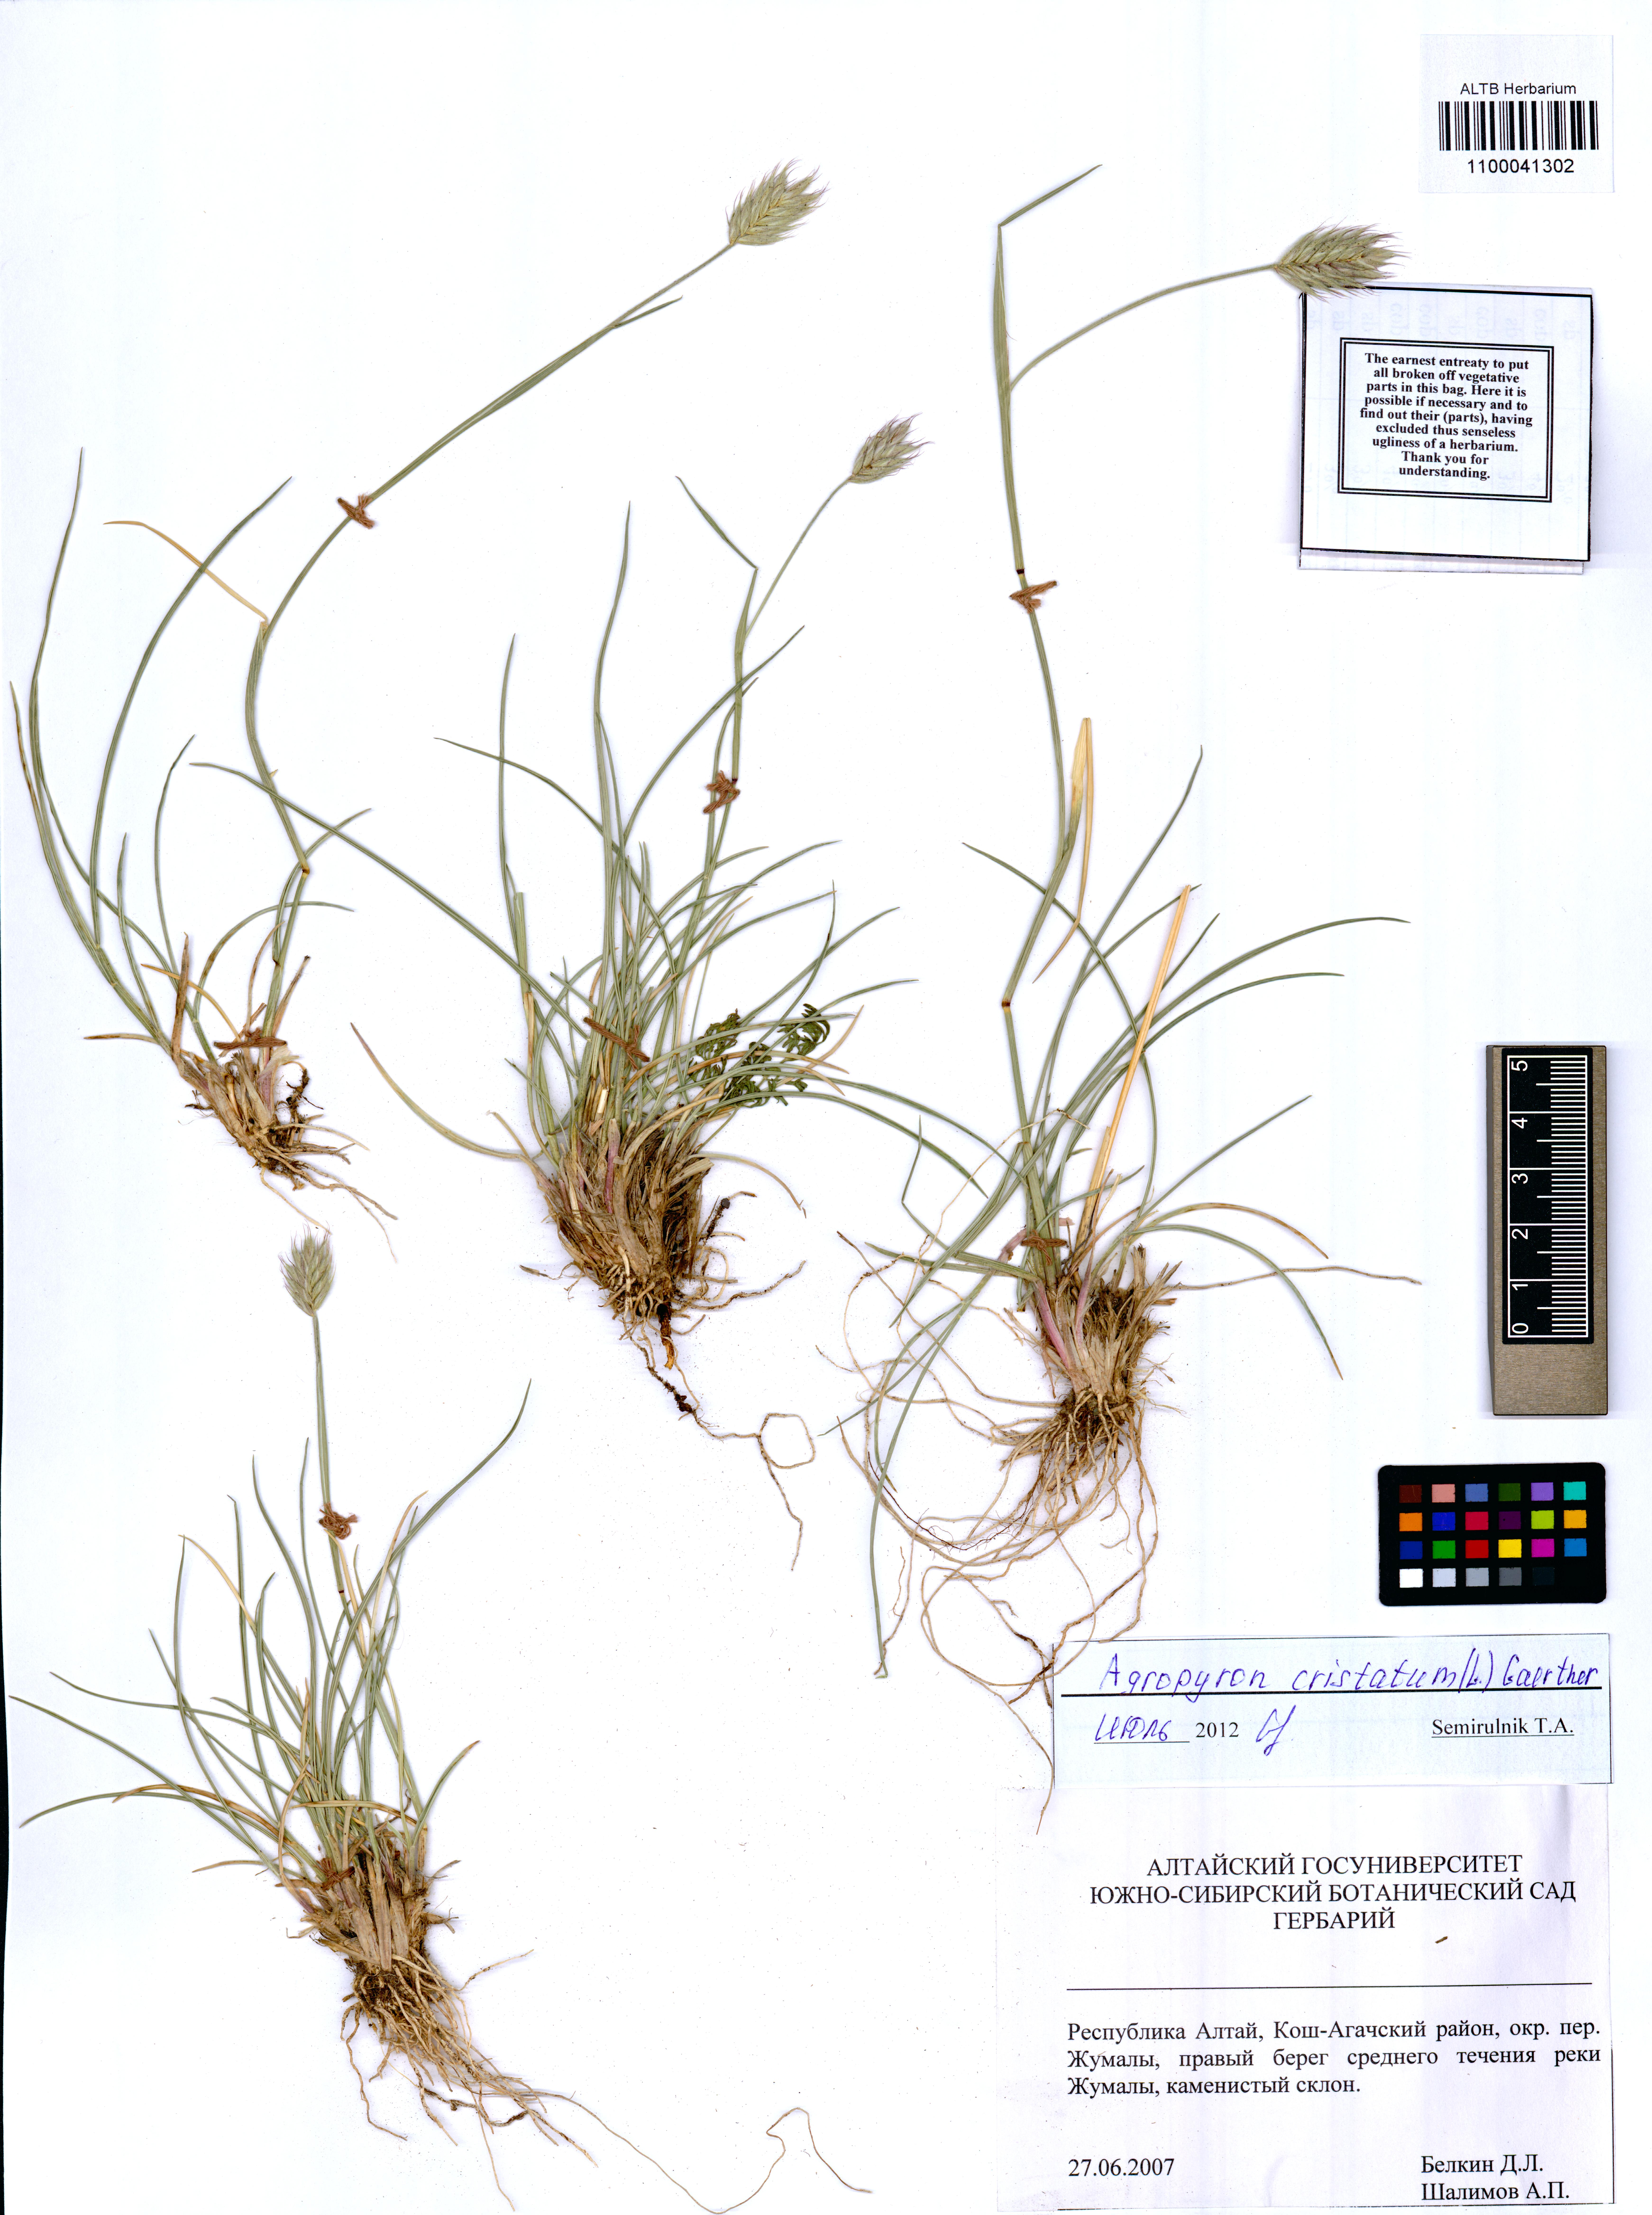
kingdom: Plantae
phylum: Tracheophyta
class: Liliopsida
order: Poales
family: Poaceae
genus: Agropyron
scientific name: Agropyron cristatum
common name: Crested wheatgrass
